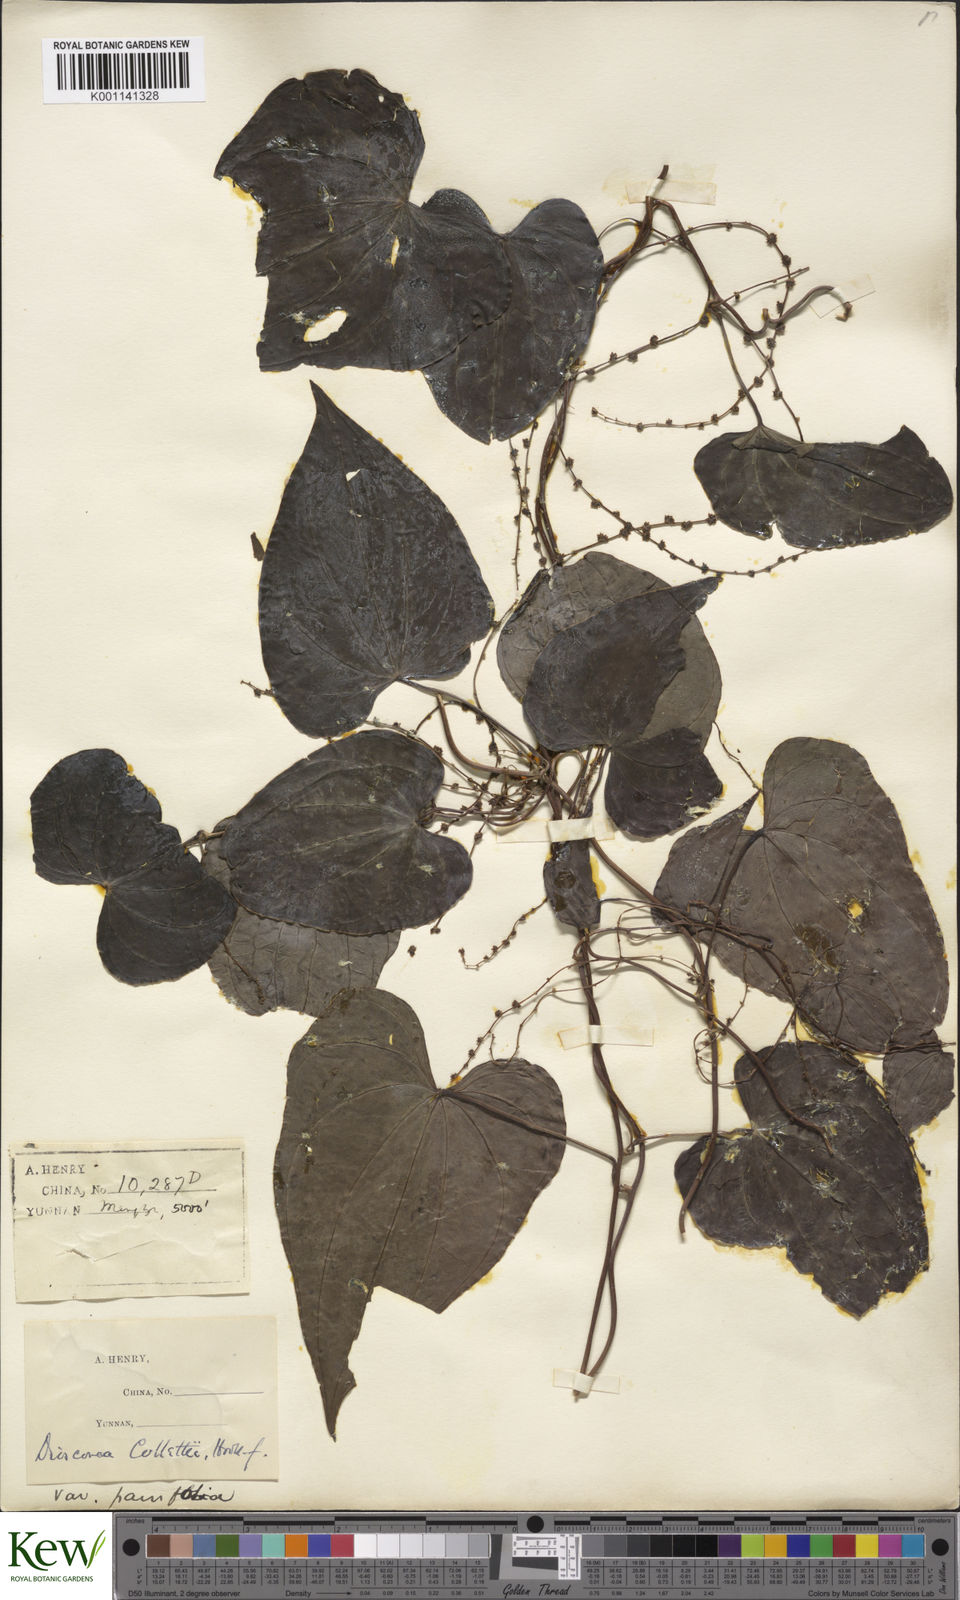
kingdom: Plantae
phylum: Tracheophyta
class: Liliopsida
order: Dioscoreales
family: Dioscoreaceae
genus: Dioscorea
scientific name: Dioscorea collettii
